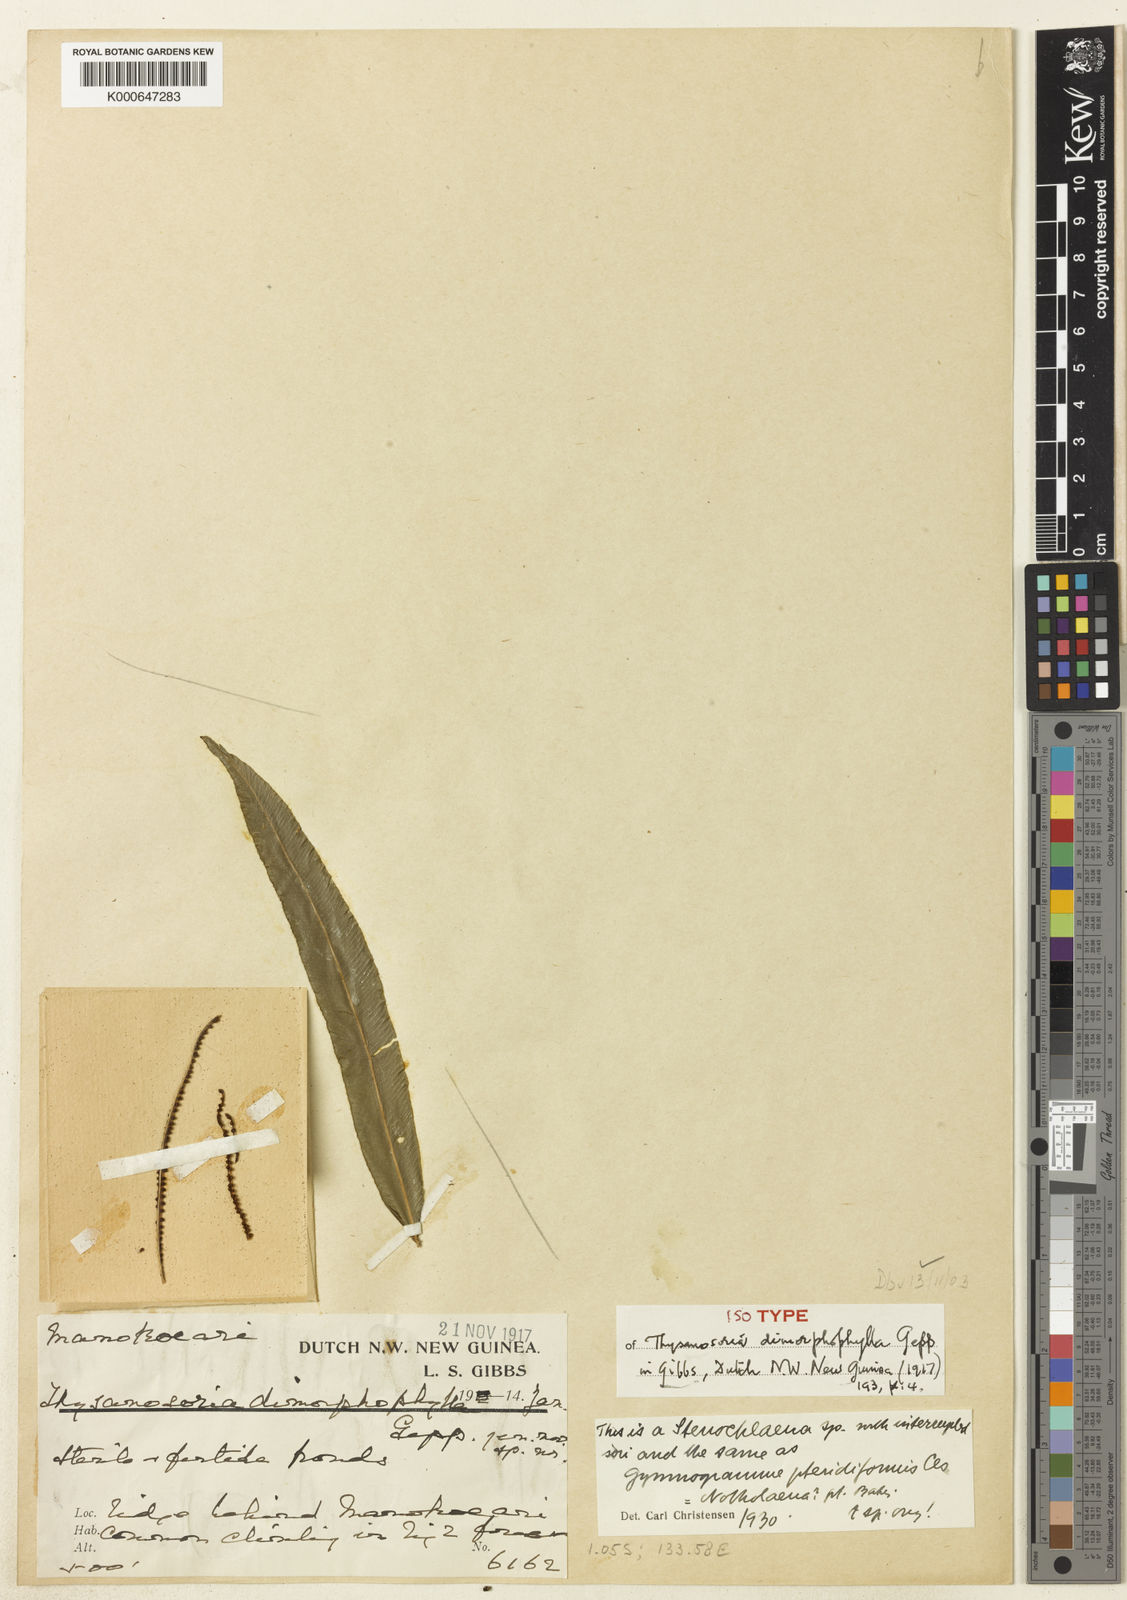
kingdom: Plantae
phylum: Tracheophyta
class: Polypodiopsida
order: Polypodiales
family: Lomariopsidaceae
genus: Lomariopsis
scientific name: Lomariopsis pteridiformis
